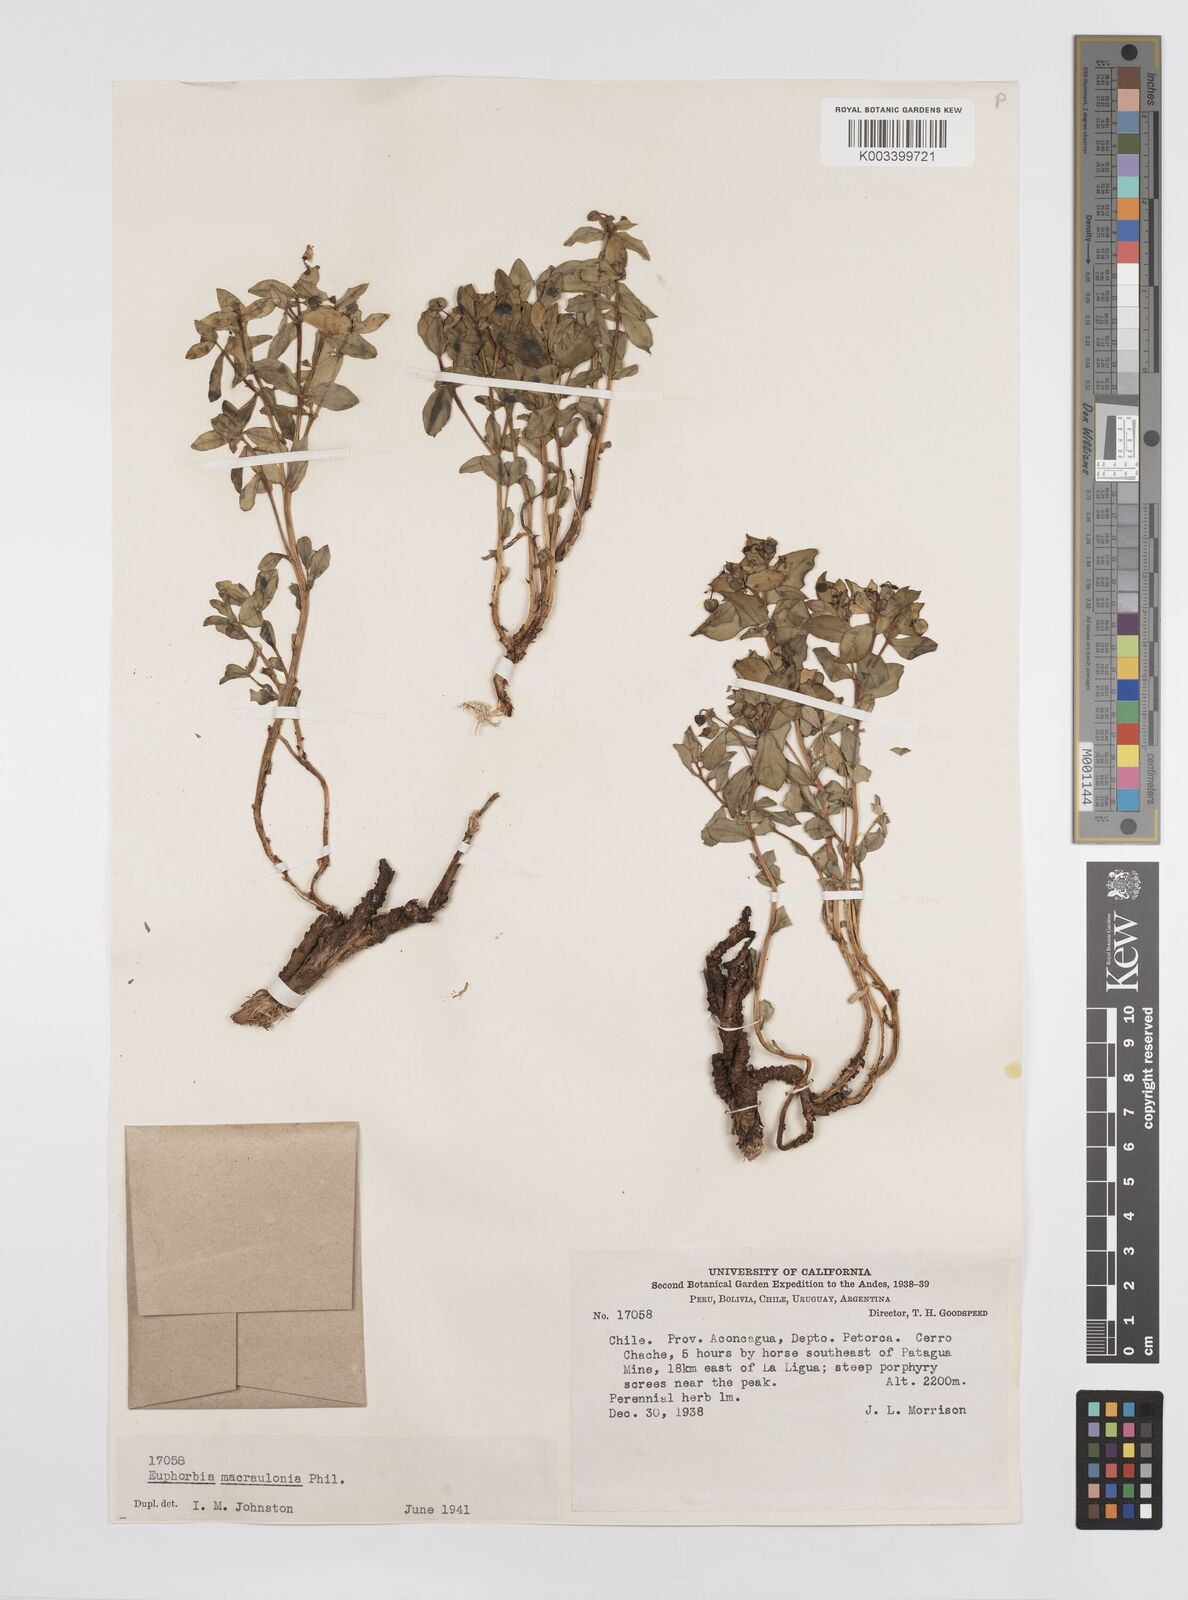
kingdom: Plantae
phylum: Tracheophyta
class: Magnoliopsida
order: Malpighiales
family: Euphorbiaceae
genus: Euphorbia
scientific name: Euphorbia macraulonia
